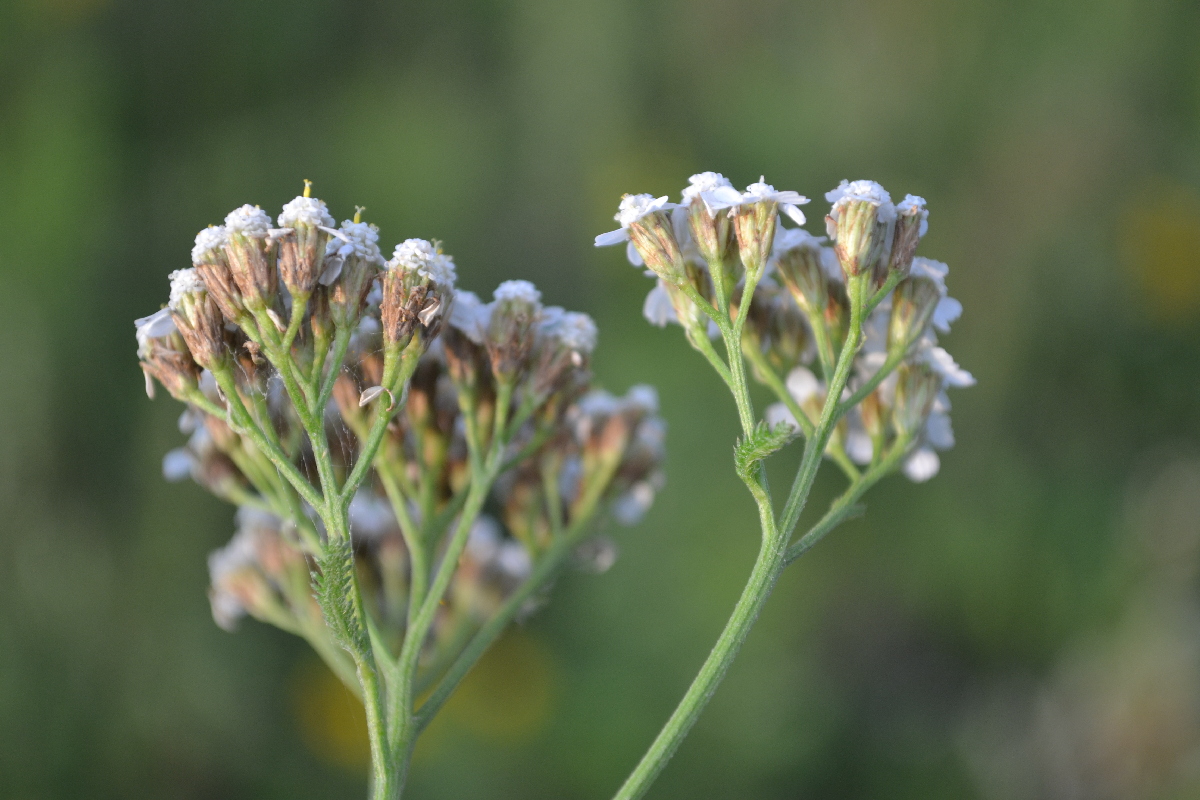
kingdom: Plantae
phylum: Tracheophyta
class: Magnoliopsida
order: Asterales
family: Asteraceae
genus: Achillea
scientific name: Achillea millefolium
